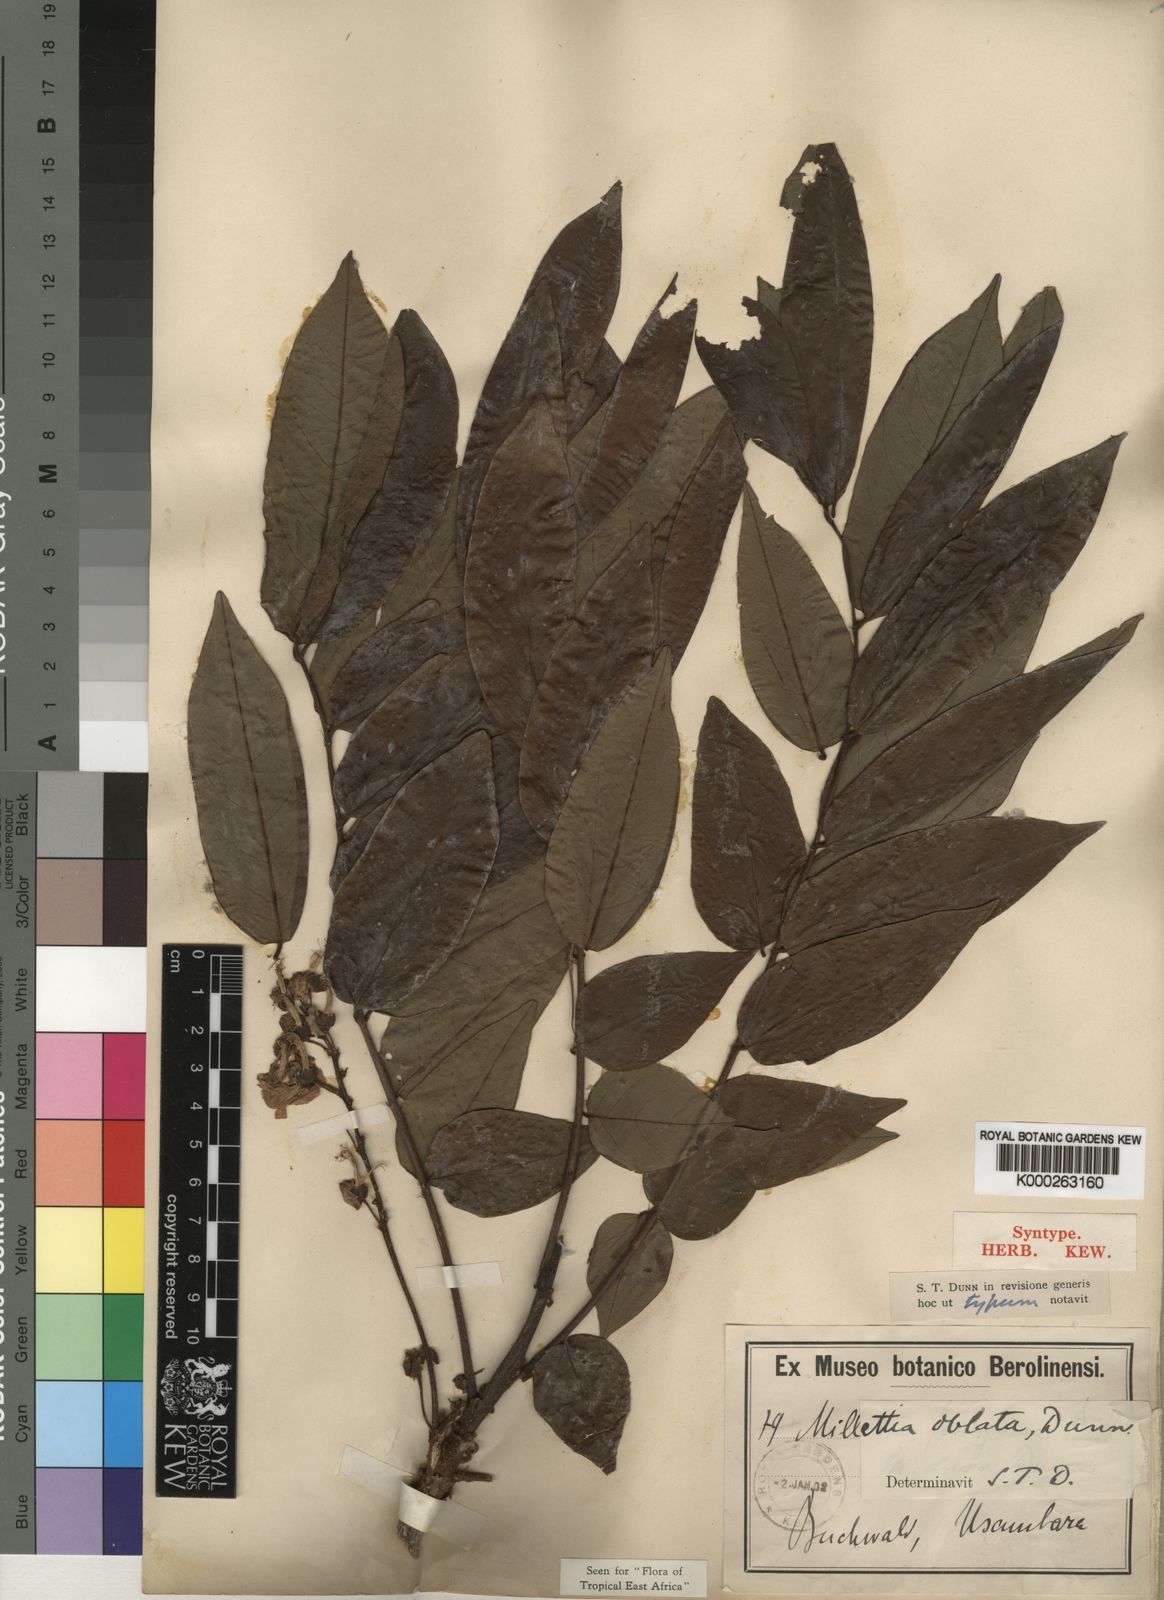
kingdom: Plantae
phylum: Tracheophyta
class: Magnoliopsida
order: Fabales
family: Fabaceae
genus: Millettia
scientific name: Millettia oblata
